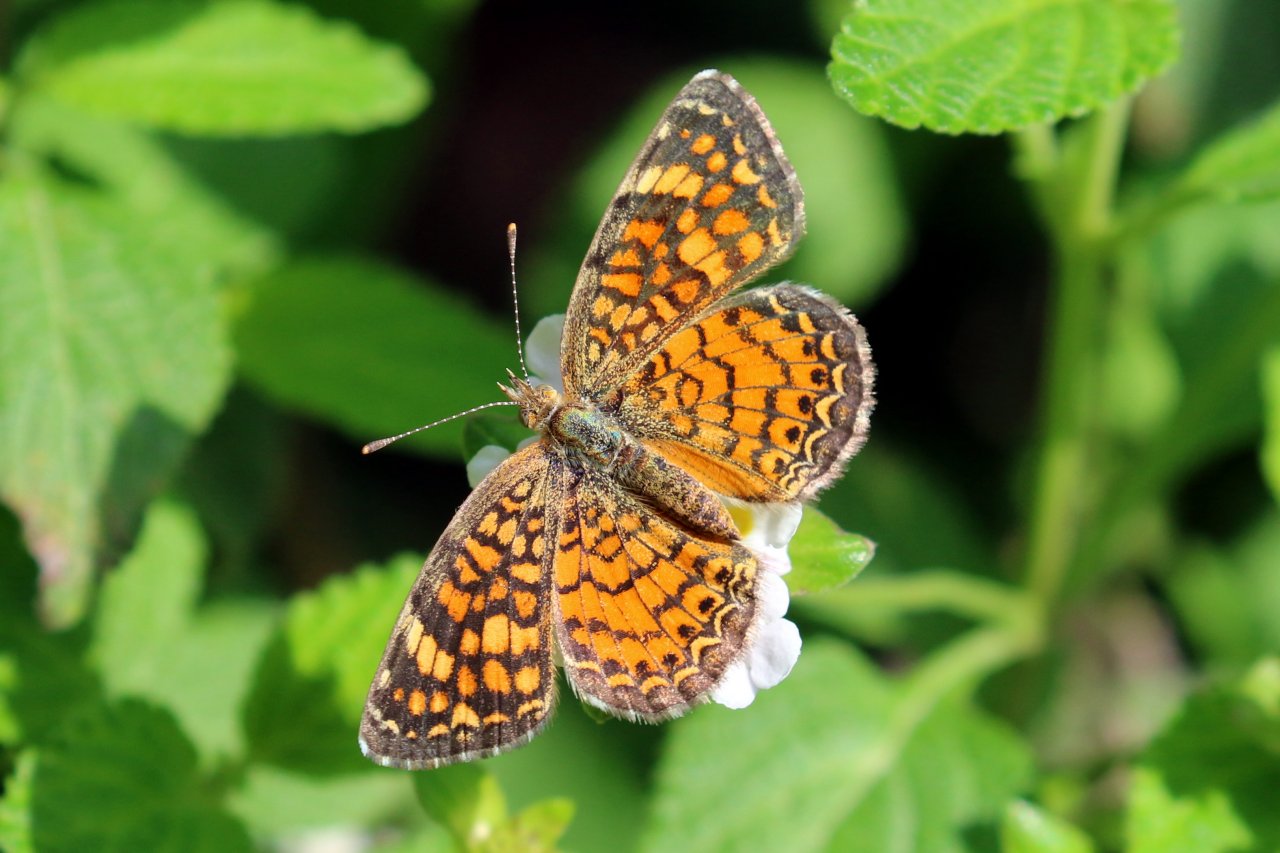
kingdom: Animalia
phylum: Arthropoda
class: Insecta
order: Lepidoptera
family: Nymphalidae
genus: Phyciodes
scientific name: Phyciodes vesta
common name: Vesta Crescent
